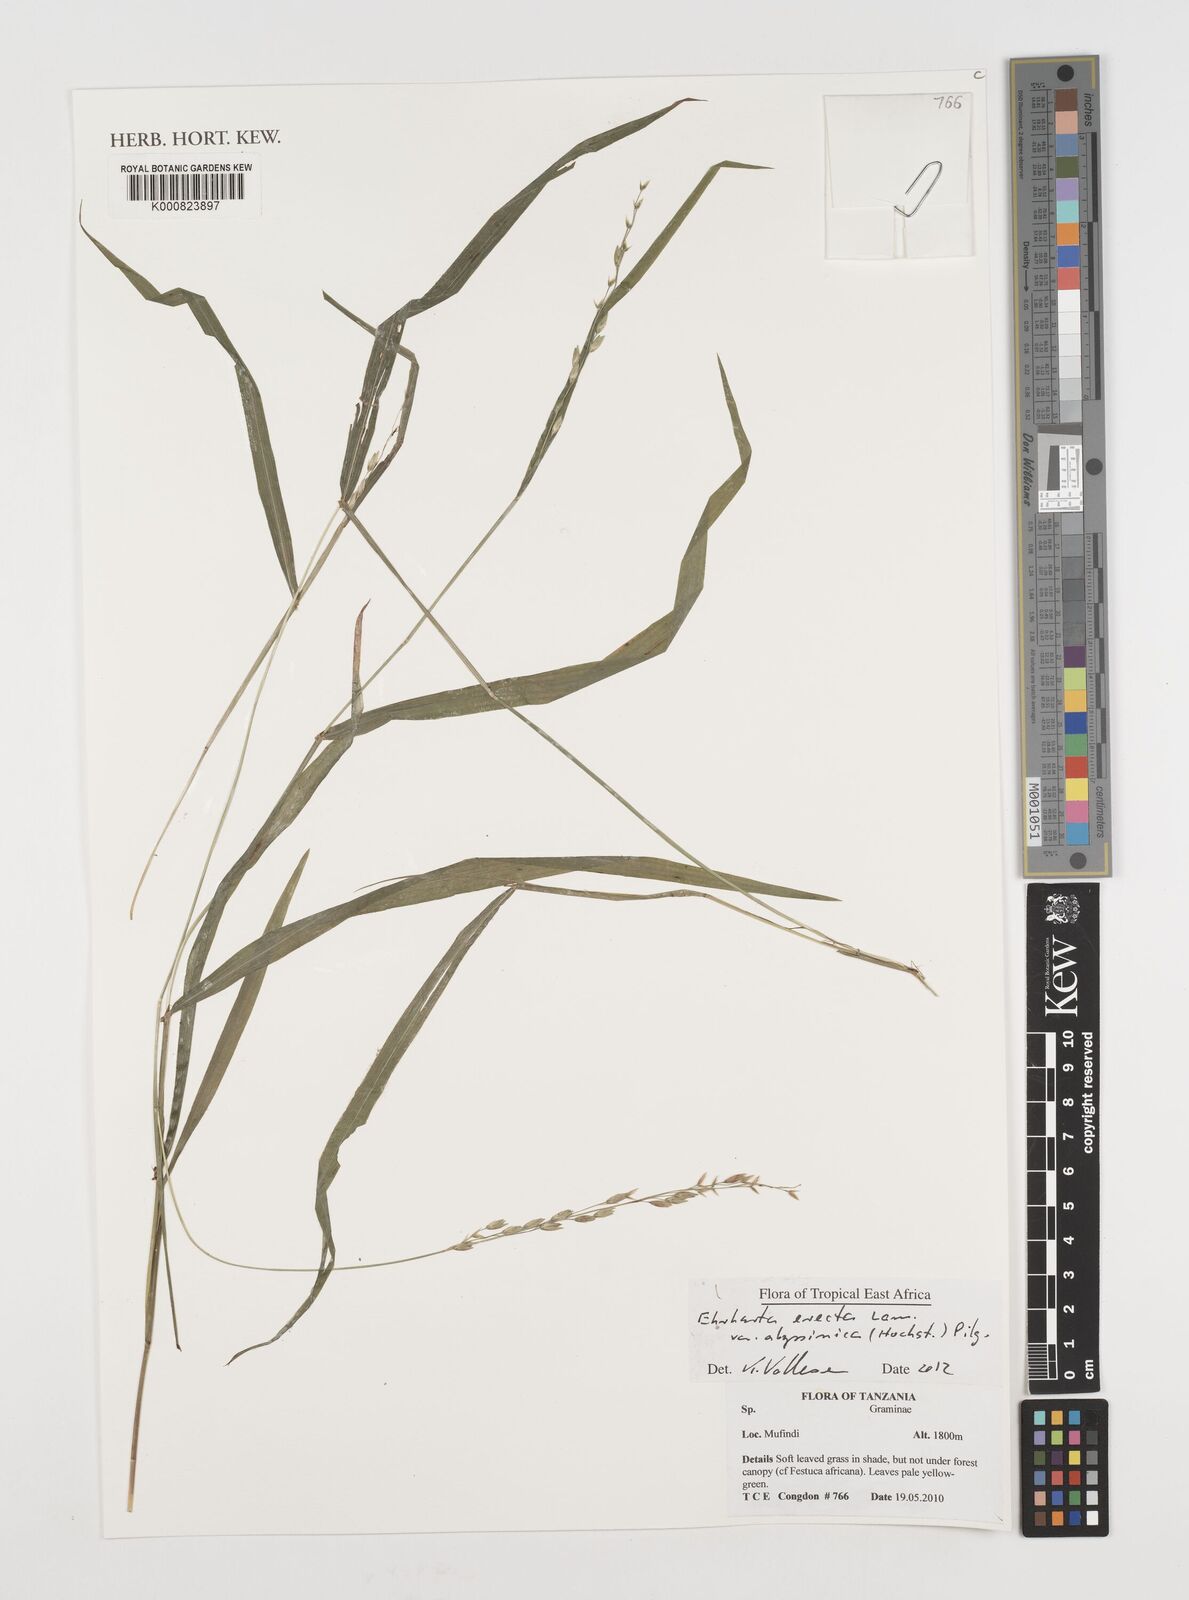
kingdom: Plantae
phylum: Tracheophyta
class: Liliopsida
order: Poales
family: Poaceae
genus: Ehrharta
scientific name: Ehrharta erecta
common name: Panic veldtgrass
